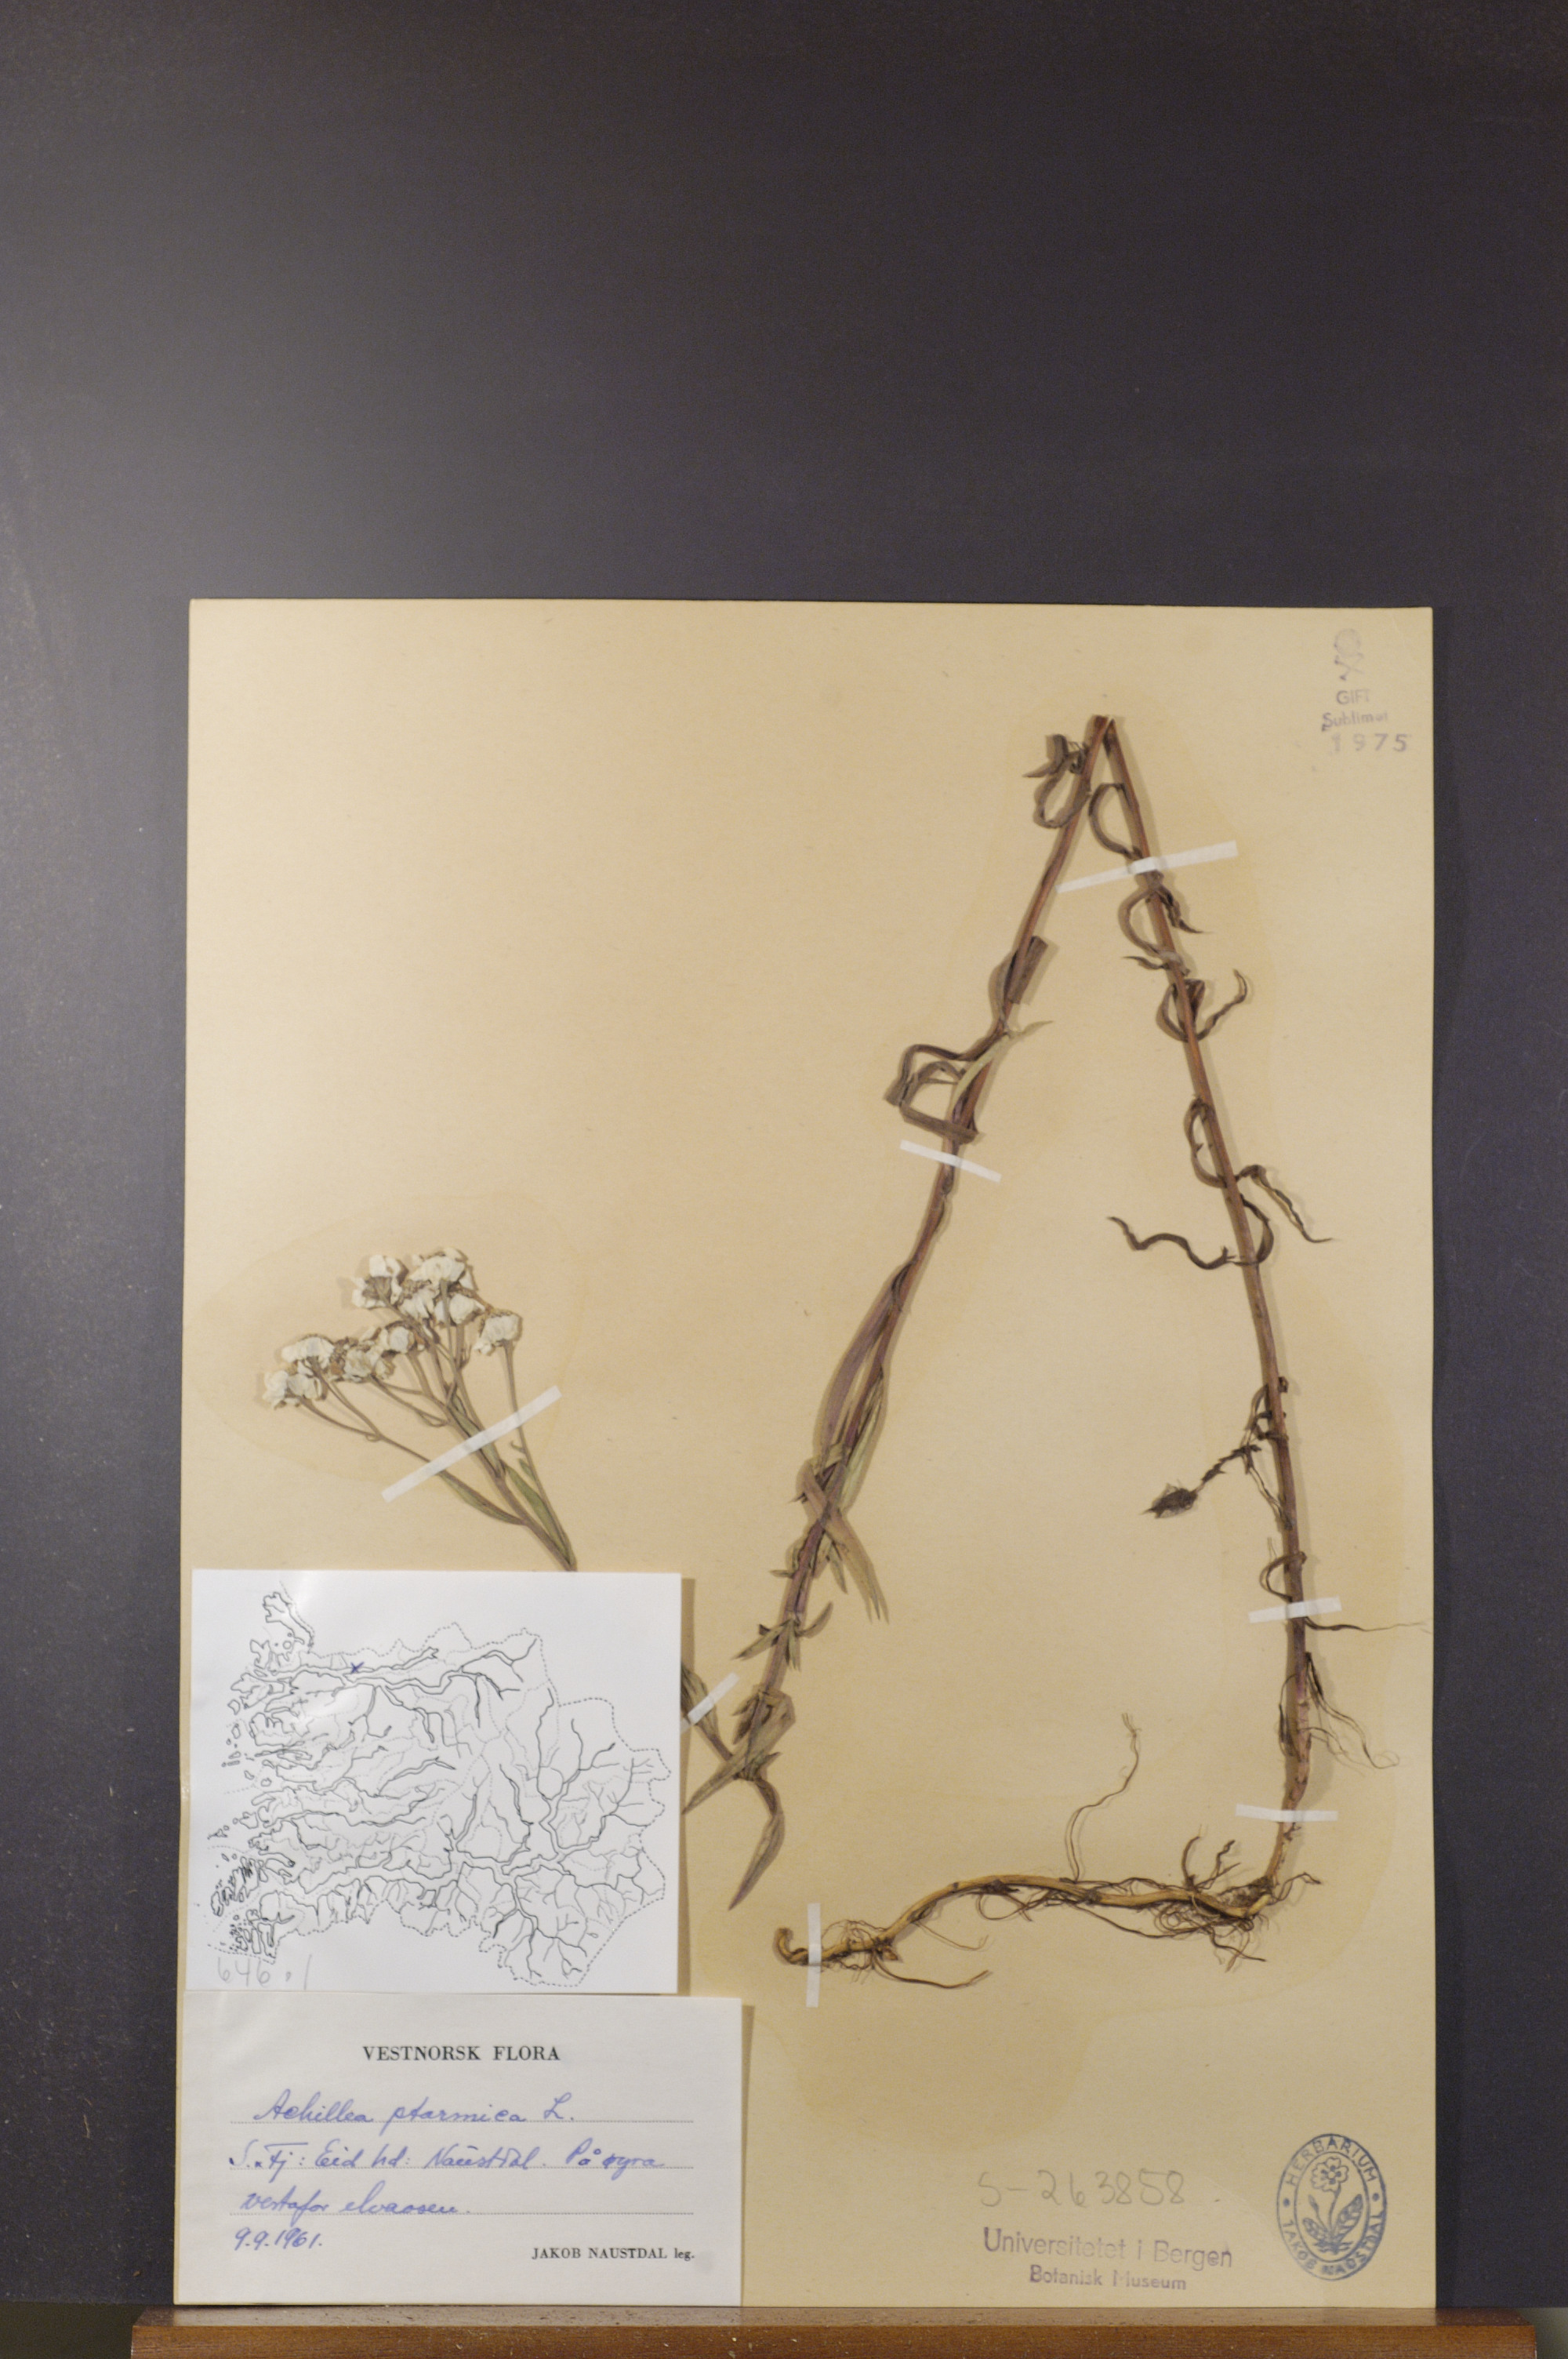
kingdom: Plantae
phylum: Tracheophyta
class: Magnoliopsida
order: Asterales
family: Asteraceae
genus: Achillea
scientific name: Achillea ptarmica
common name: Sneezeweed
